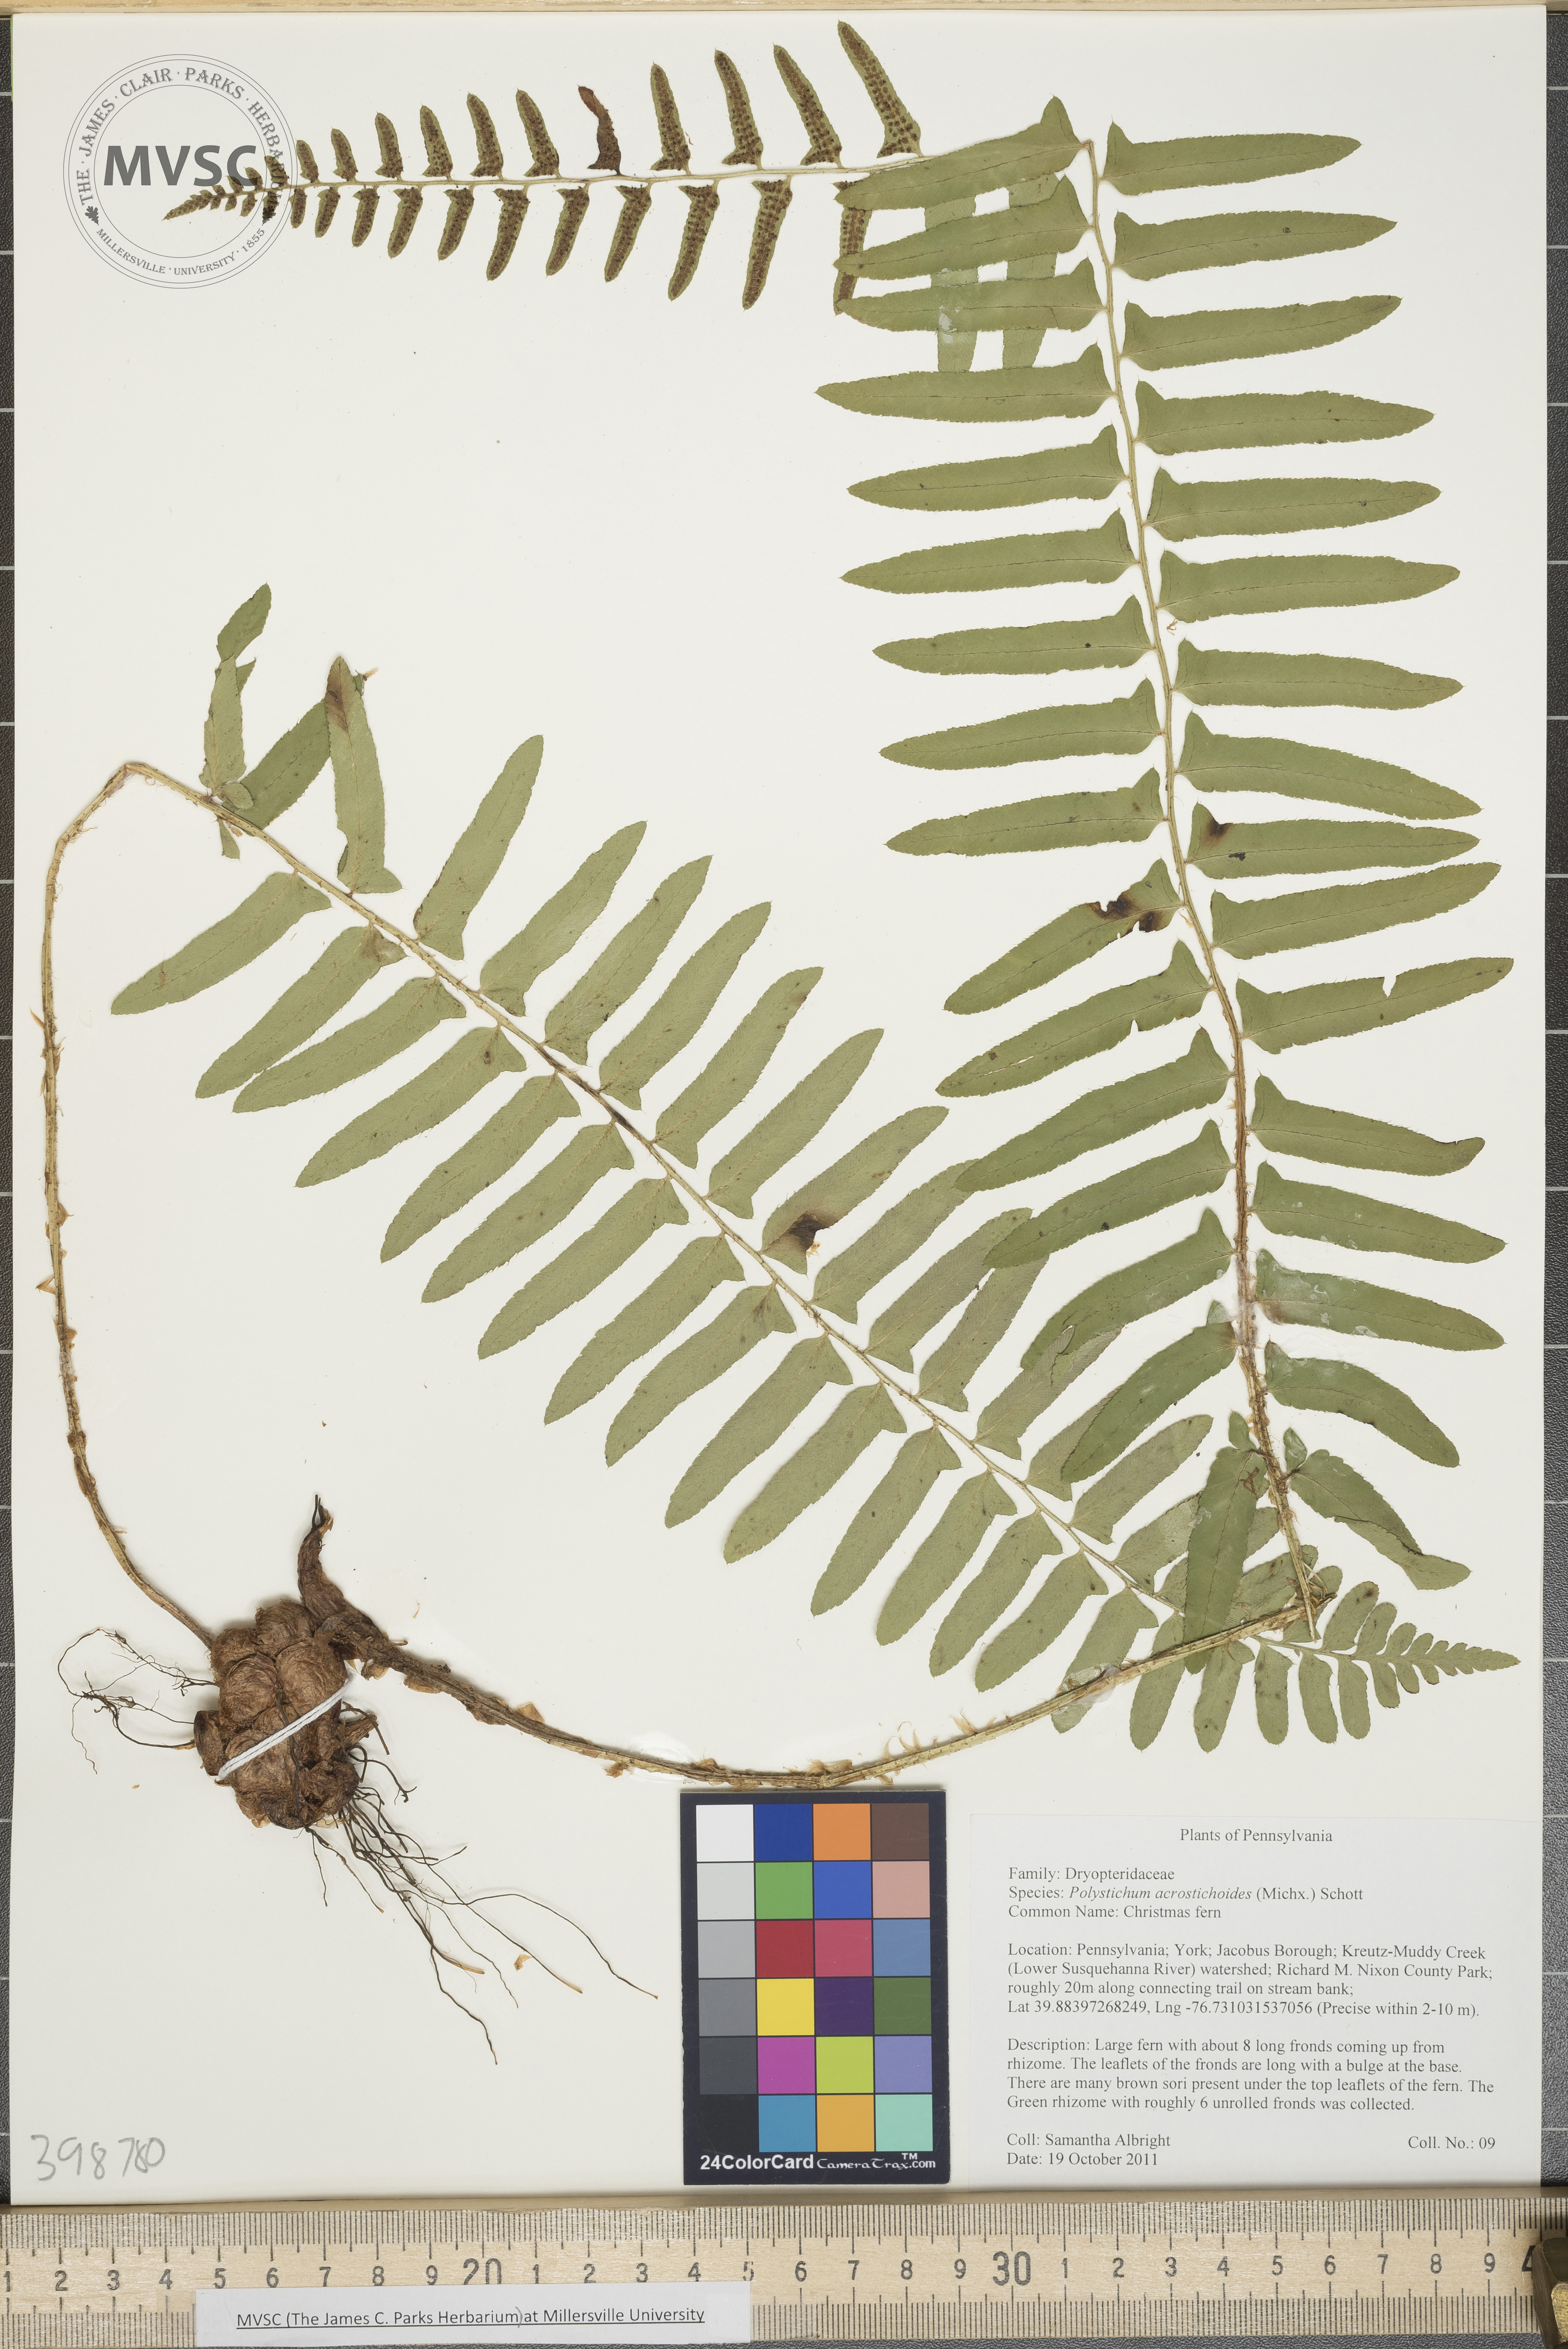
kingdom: Plantae
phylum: Tracheophyta
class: Polypodiopsida
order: Polypodiales
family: Dryopteridaceae
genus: Polystichum
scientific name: Polystichum acrostichoides
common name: Christmas fern
